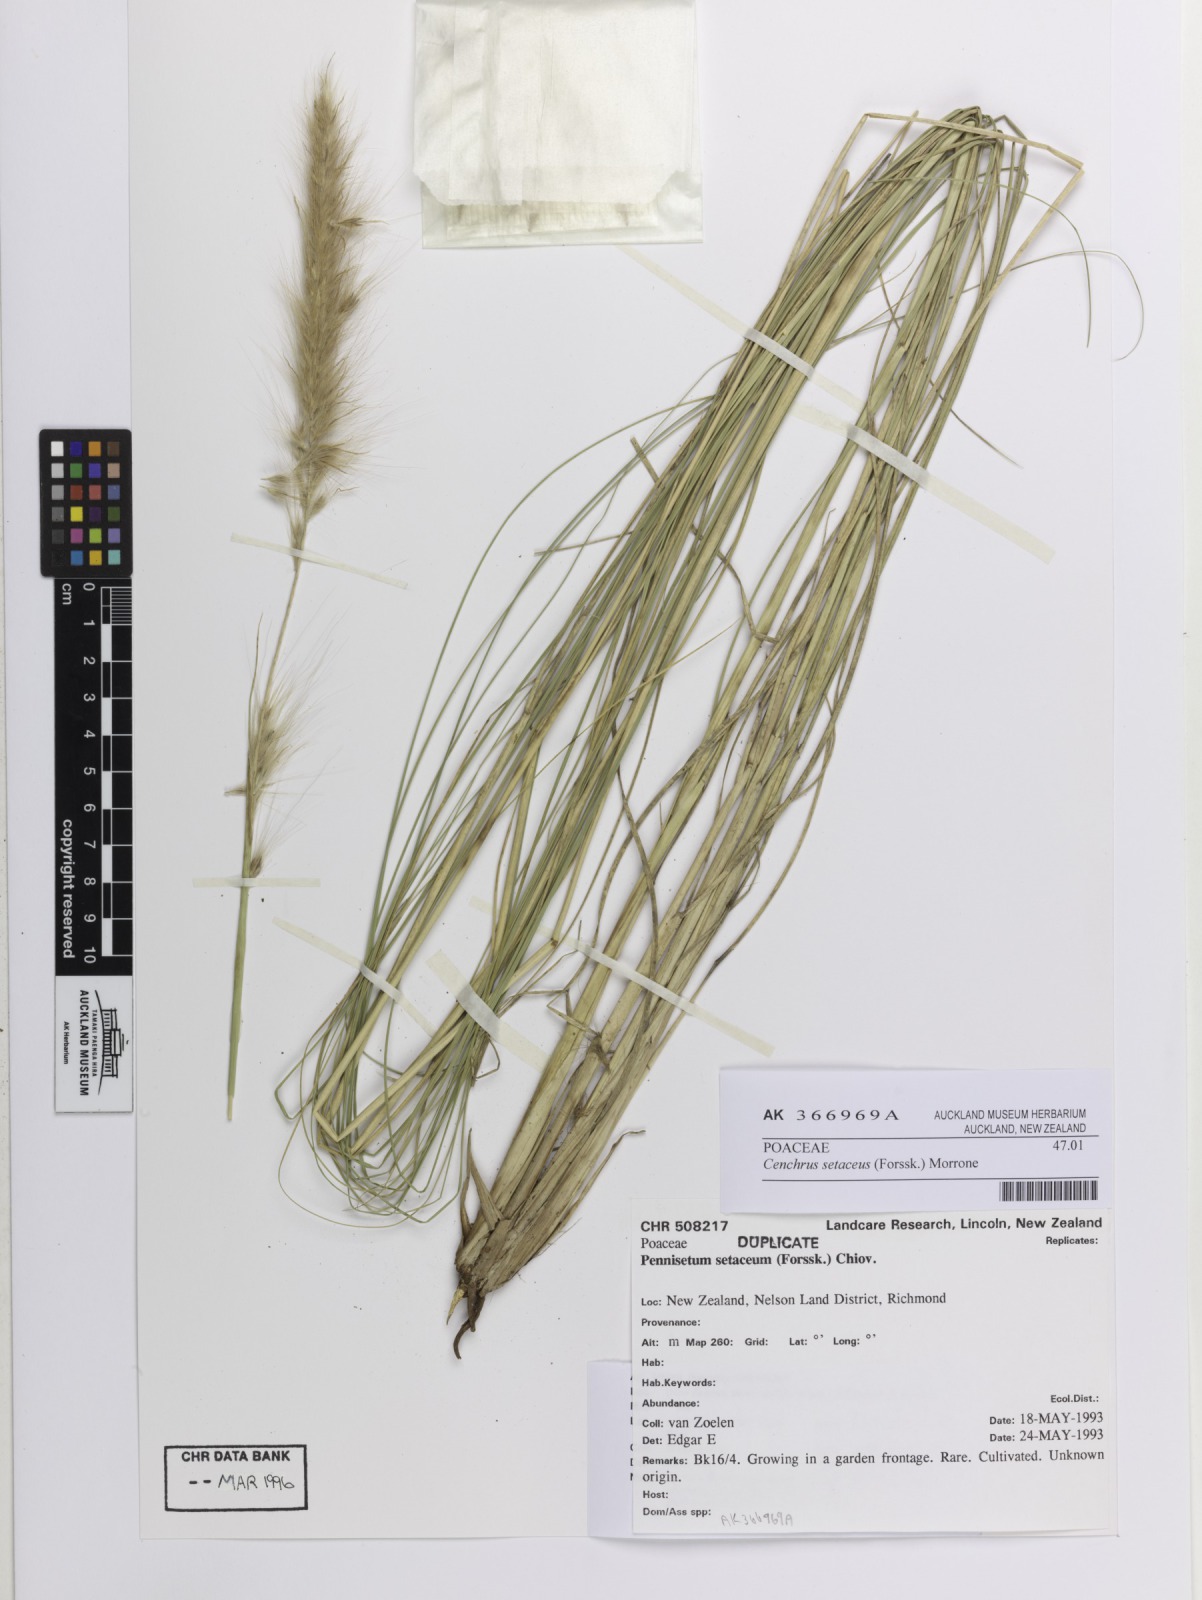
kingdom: Plantae
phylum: Tracheophyta
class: Liliopsida
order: Poales
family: Poaceae
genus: Cenchrus
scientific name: Cenchrus setaceus
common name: Crimson fountaingrass
